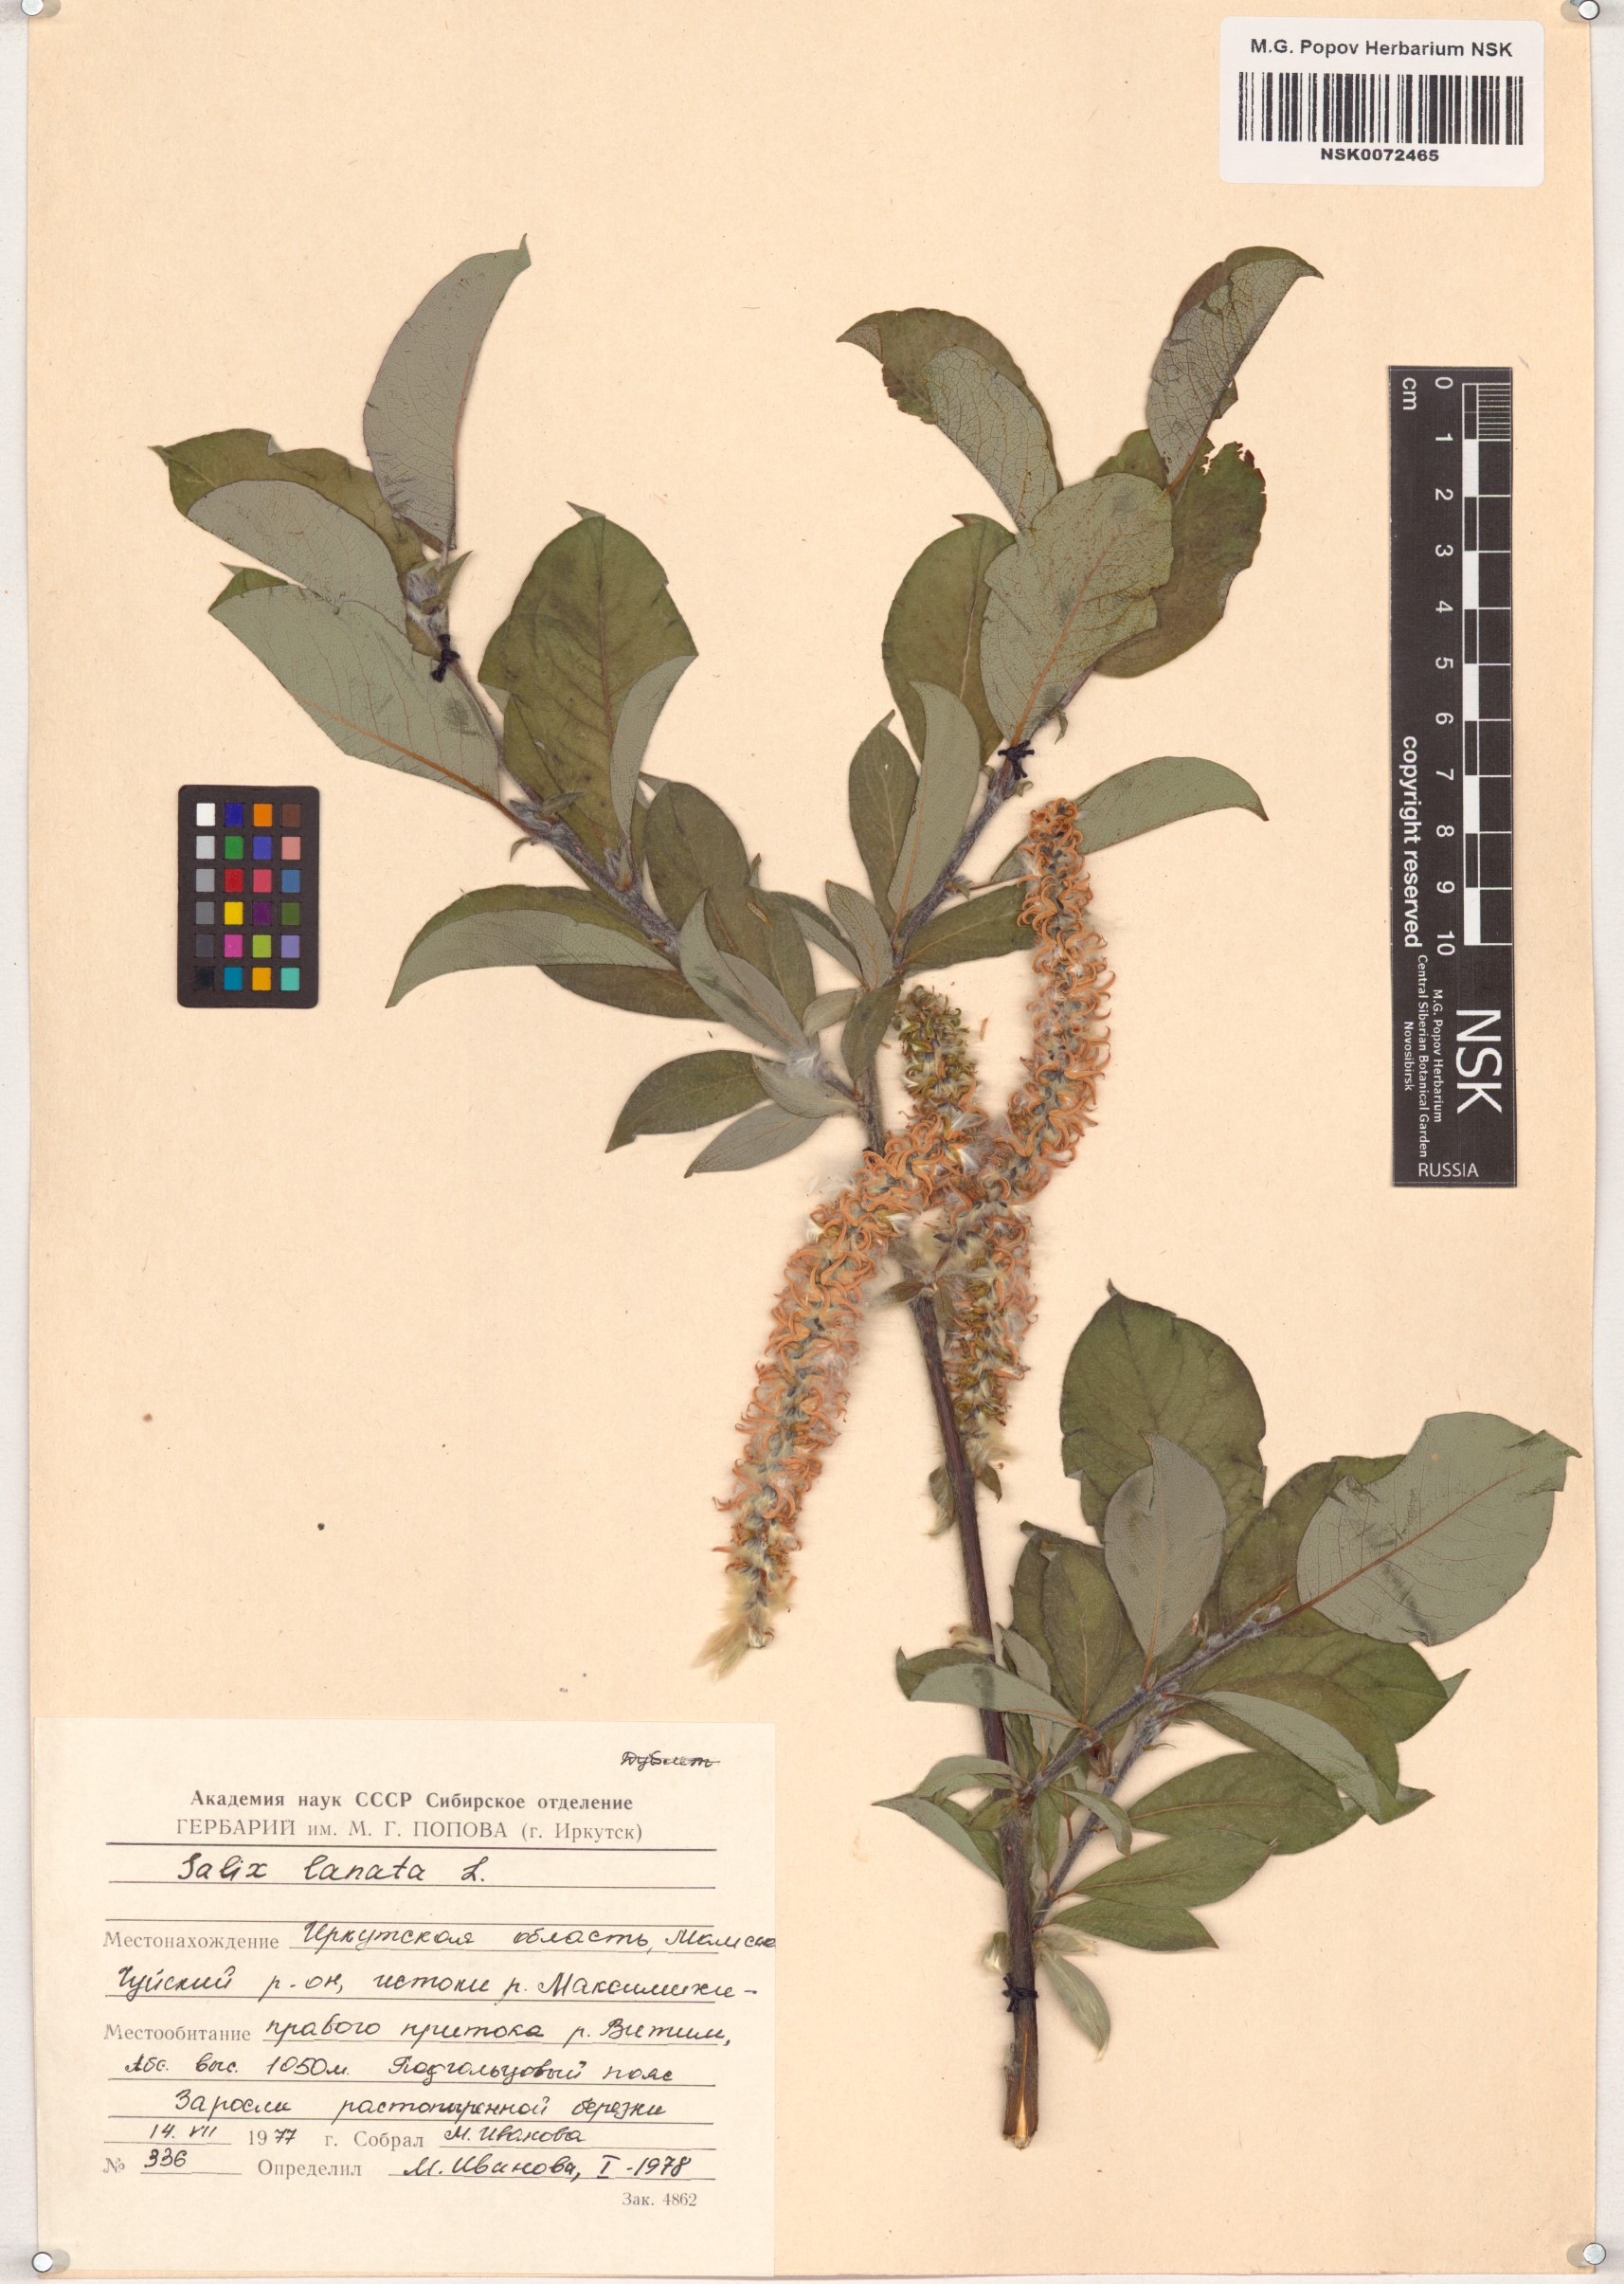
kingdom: Plantae
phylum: Tracheophyta
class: Magnoliopsida
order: Malpighiales
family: Salicaceae
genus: Salix
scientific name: Salix lanata
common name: Woolly willow
